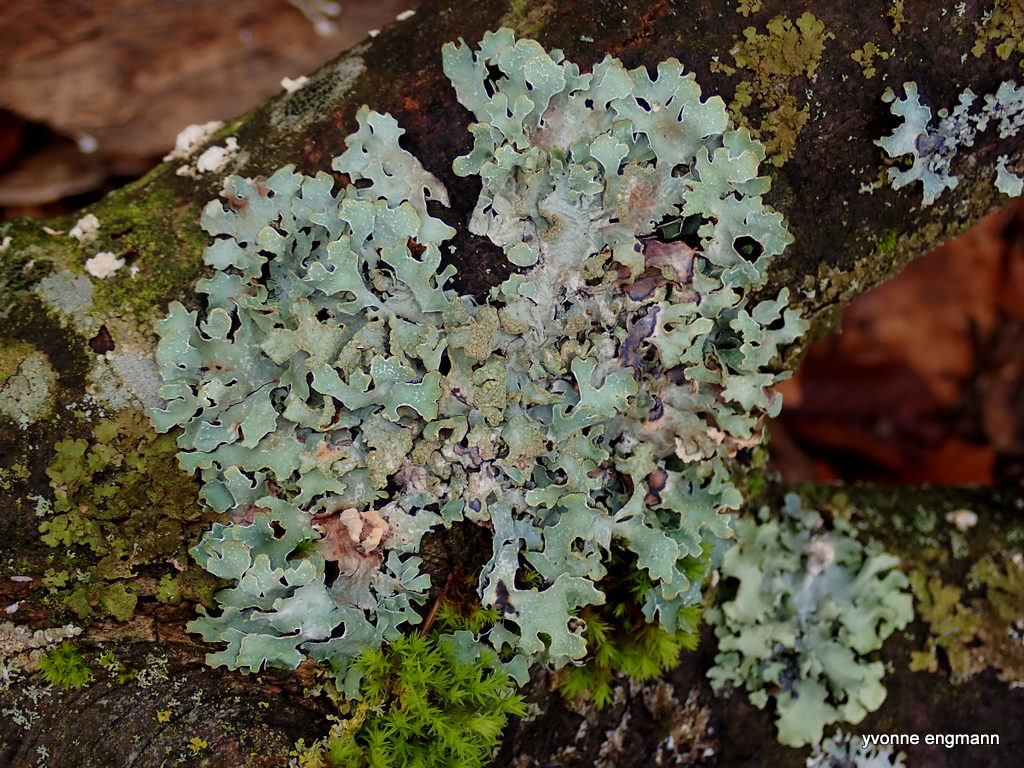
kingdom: Fungi
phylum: Ascomycota
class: Lecanoromycetes
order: Lecanorales
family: Parmeliaceae
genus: Parmelia
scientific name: Parmelia sulcata
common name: rynket skållav
